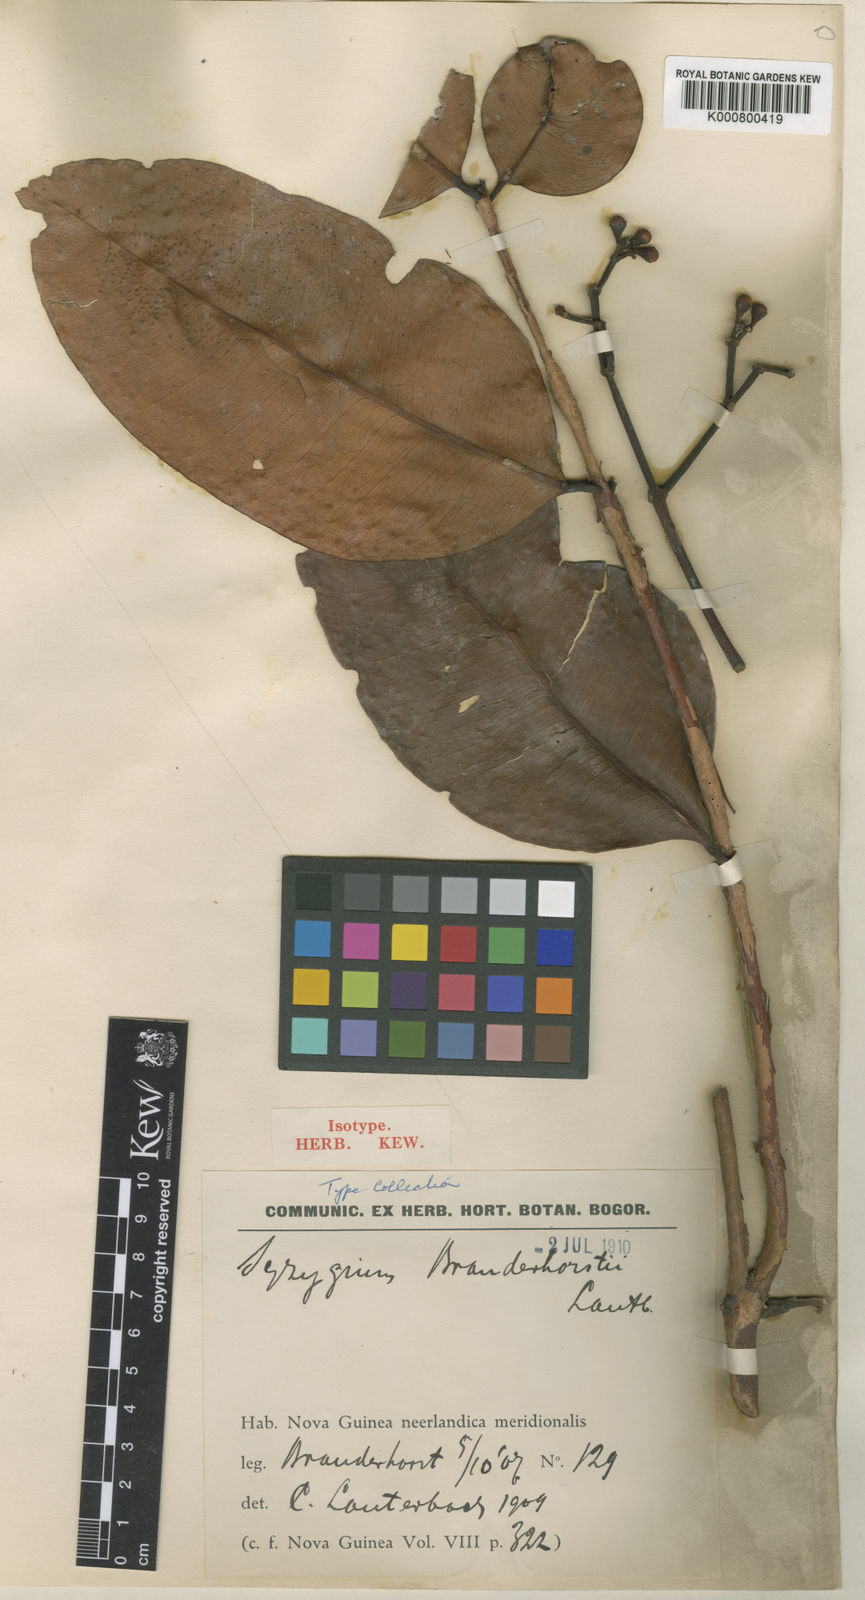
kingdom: Plantae
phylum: Tracheophyta
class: Magnoliopsida
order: Myrtales
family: Myrtaceae
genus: Syzygium
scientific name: Syzygium branderhorstii
